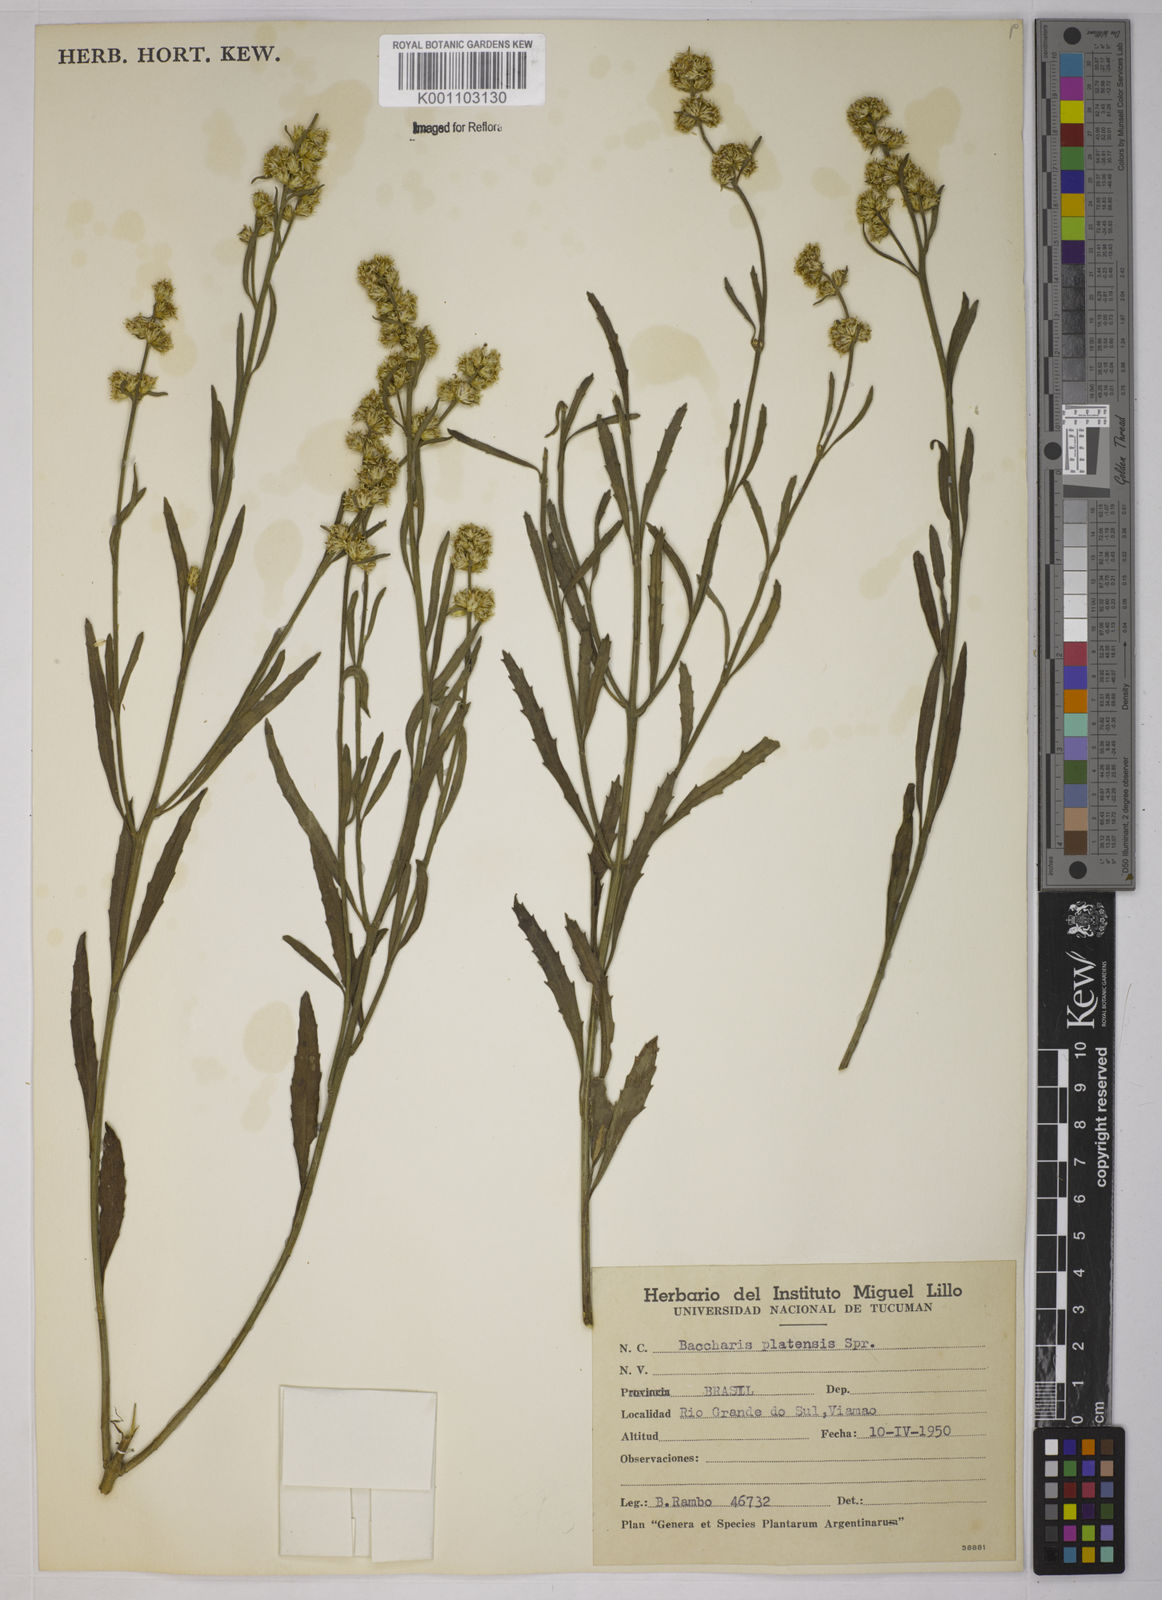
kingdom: Plantae
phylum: Tracheophyta
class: Magnoliopsida
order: Asterales
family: Asteraceae
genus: Baccharis
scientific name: Baccharis hieronymi
